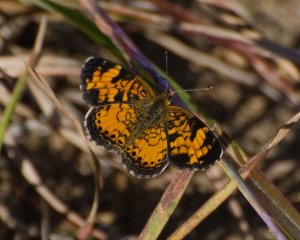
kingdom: Animalia
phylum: Arthropoda
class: Insecta
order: Lepidoptera
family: Nymphalidae
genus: Phyciodes
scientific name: Phyciodes
